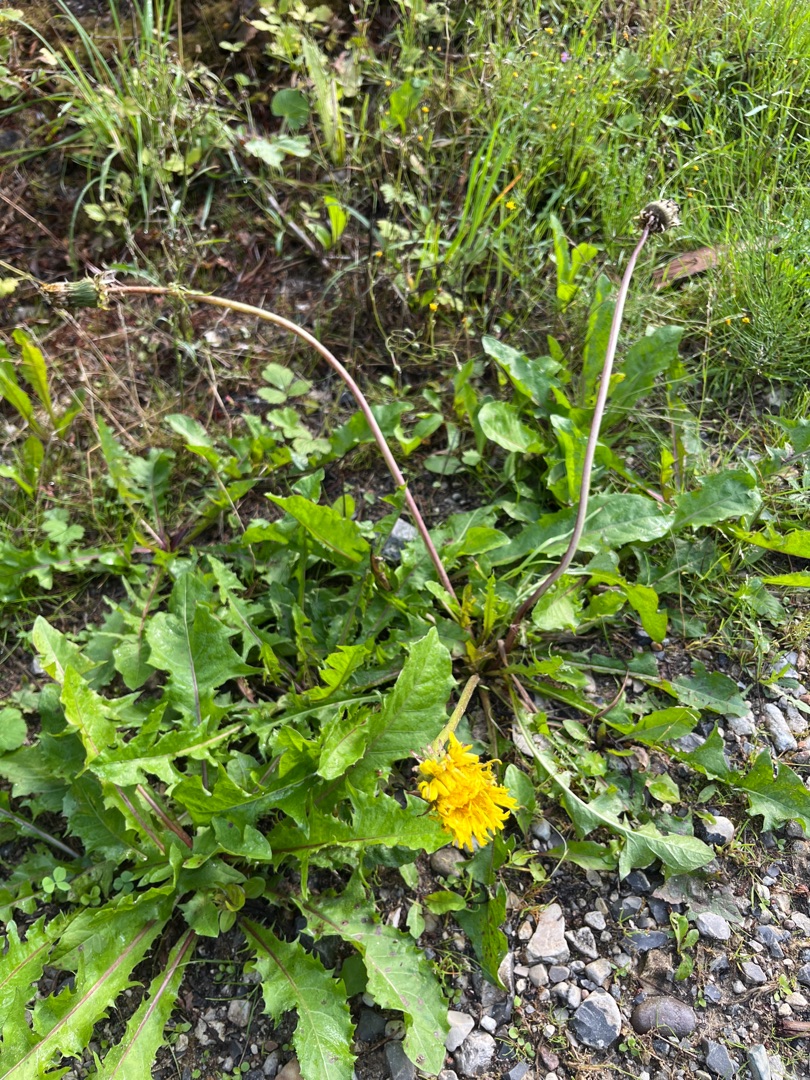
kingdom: Plantae
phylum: Tracheophyta
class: Magnoliopsida
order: Asterales
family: Asteraceae
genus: Taraxacum
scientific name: Taraxacum
